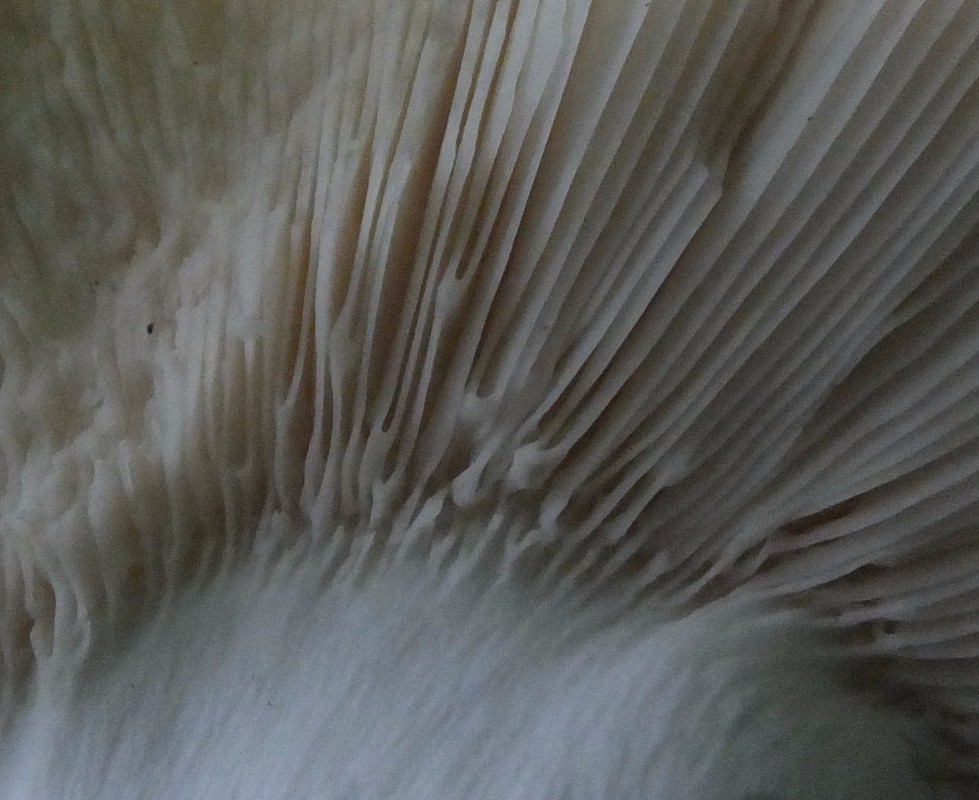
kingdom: Fungi
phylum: Basidiomycota
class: Agaricomycetes
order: Russulales
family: Russulaceae
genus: Russula
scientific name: Russula heterophylla
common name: gaffelbladet skørhat
